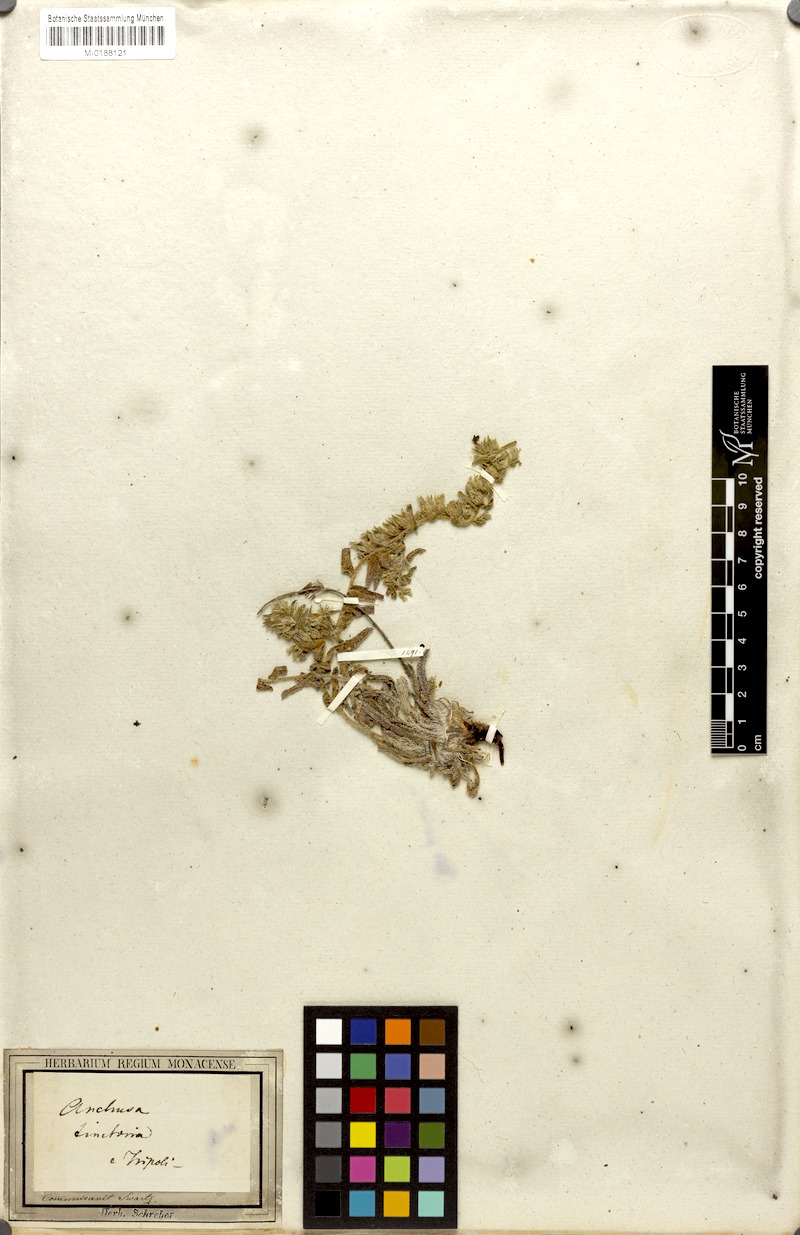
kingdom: Plantae
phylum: Tracheophyta
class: Magnoliopsida
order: Boraginales
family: Boraginaceae
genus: Alkanna
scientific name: Alkanna tinctoria
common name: Dyer's-alkanet
